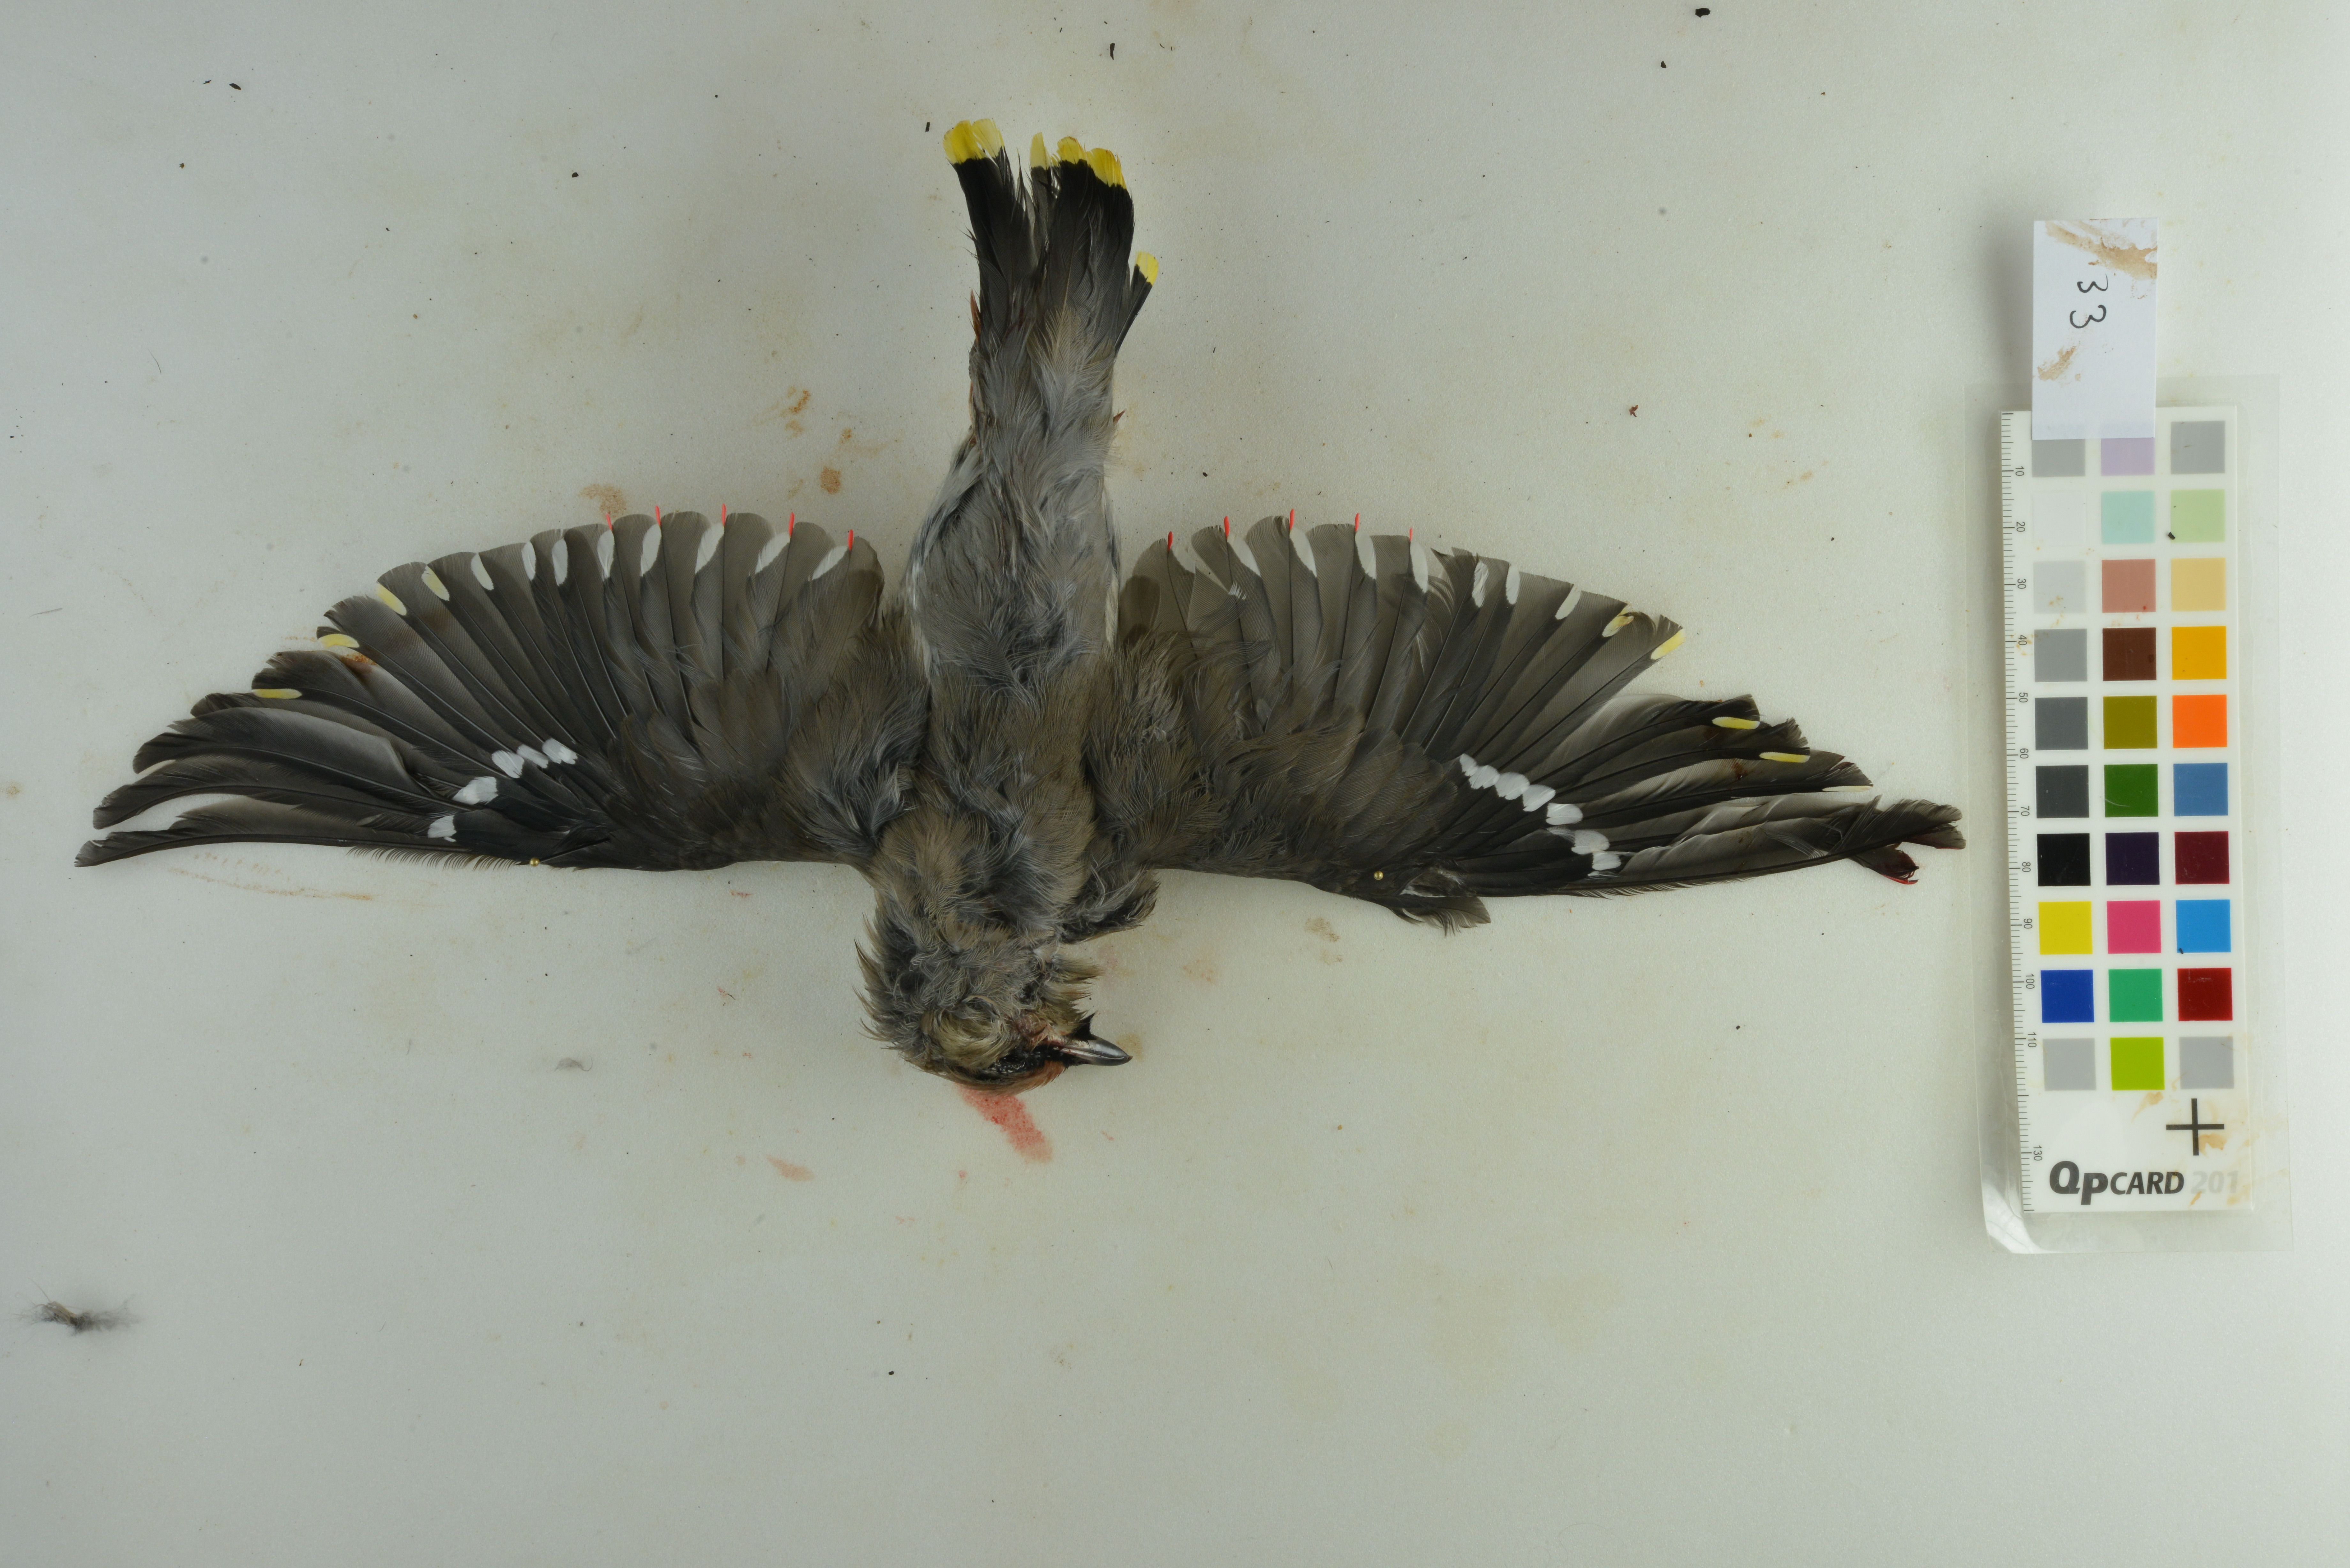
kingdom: Animalia
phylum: Chordata
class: Aves
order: Passeriformes
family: Bombycillidae
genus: Bombycilla
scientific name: Bombycilla garrulus
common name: Bohemian waxwing
